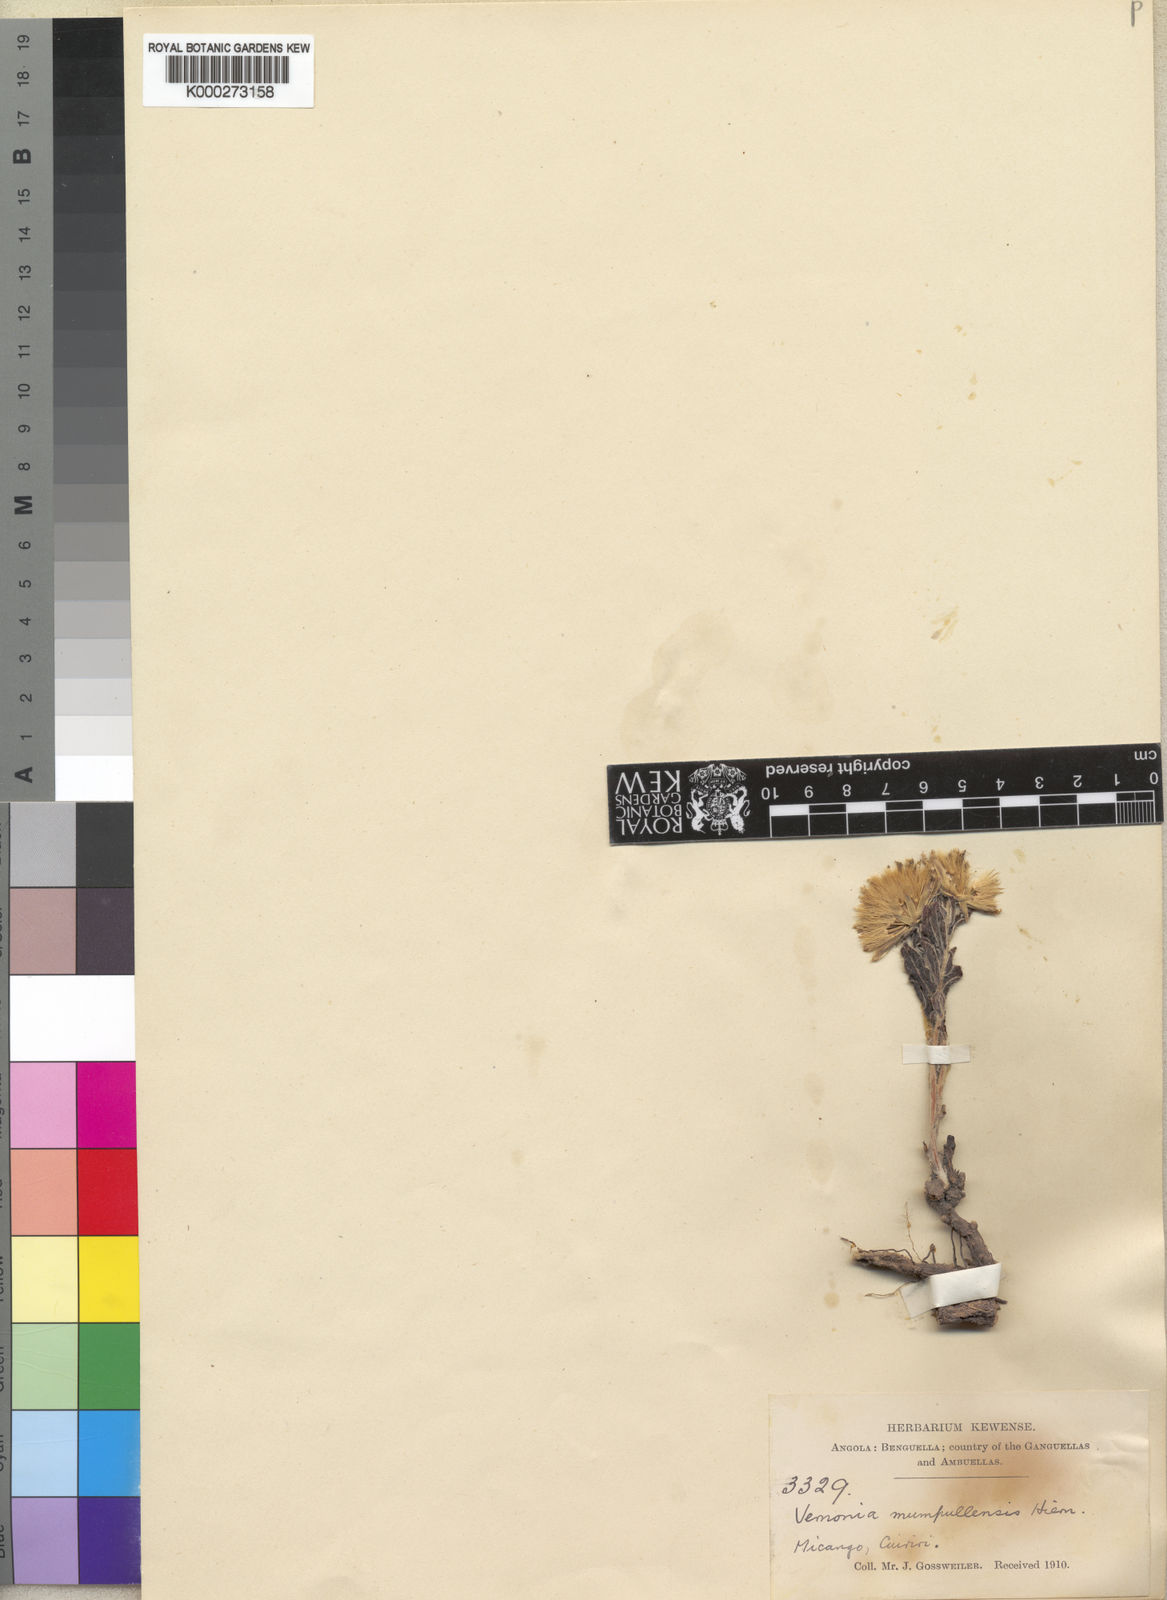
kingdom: Plantae
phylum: Tracheophyta
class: Magnoliopsida
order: Asterales
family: Asteraceae
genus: Vernonia
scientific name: Vernonia mumpullensis
